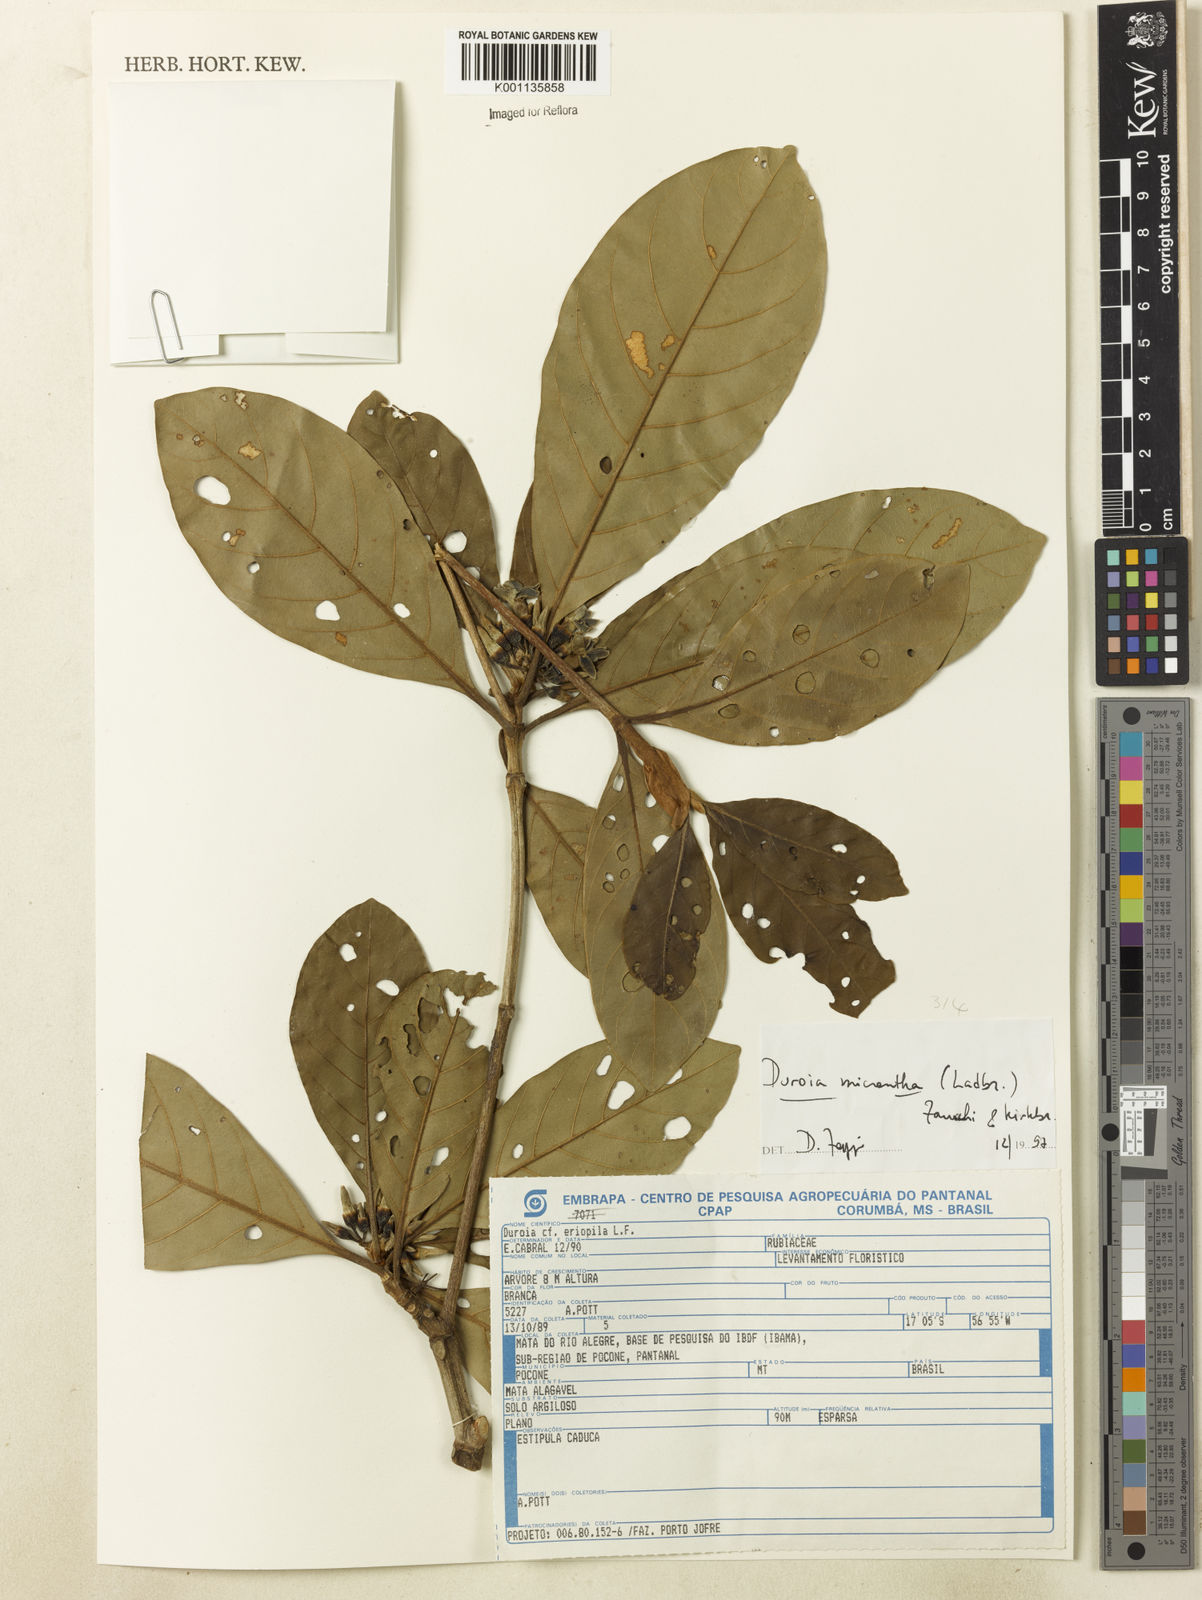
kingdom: Plantae
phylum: Tracheophyta
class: Magnoliopsida
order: Gentianales
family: Rubiaceae
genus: Duroia
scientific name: Duroia micrantha
